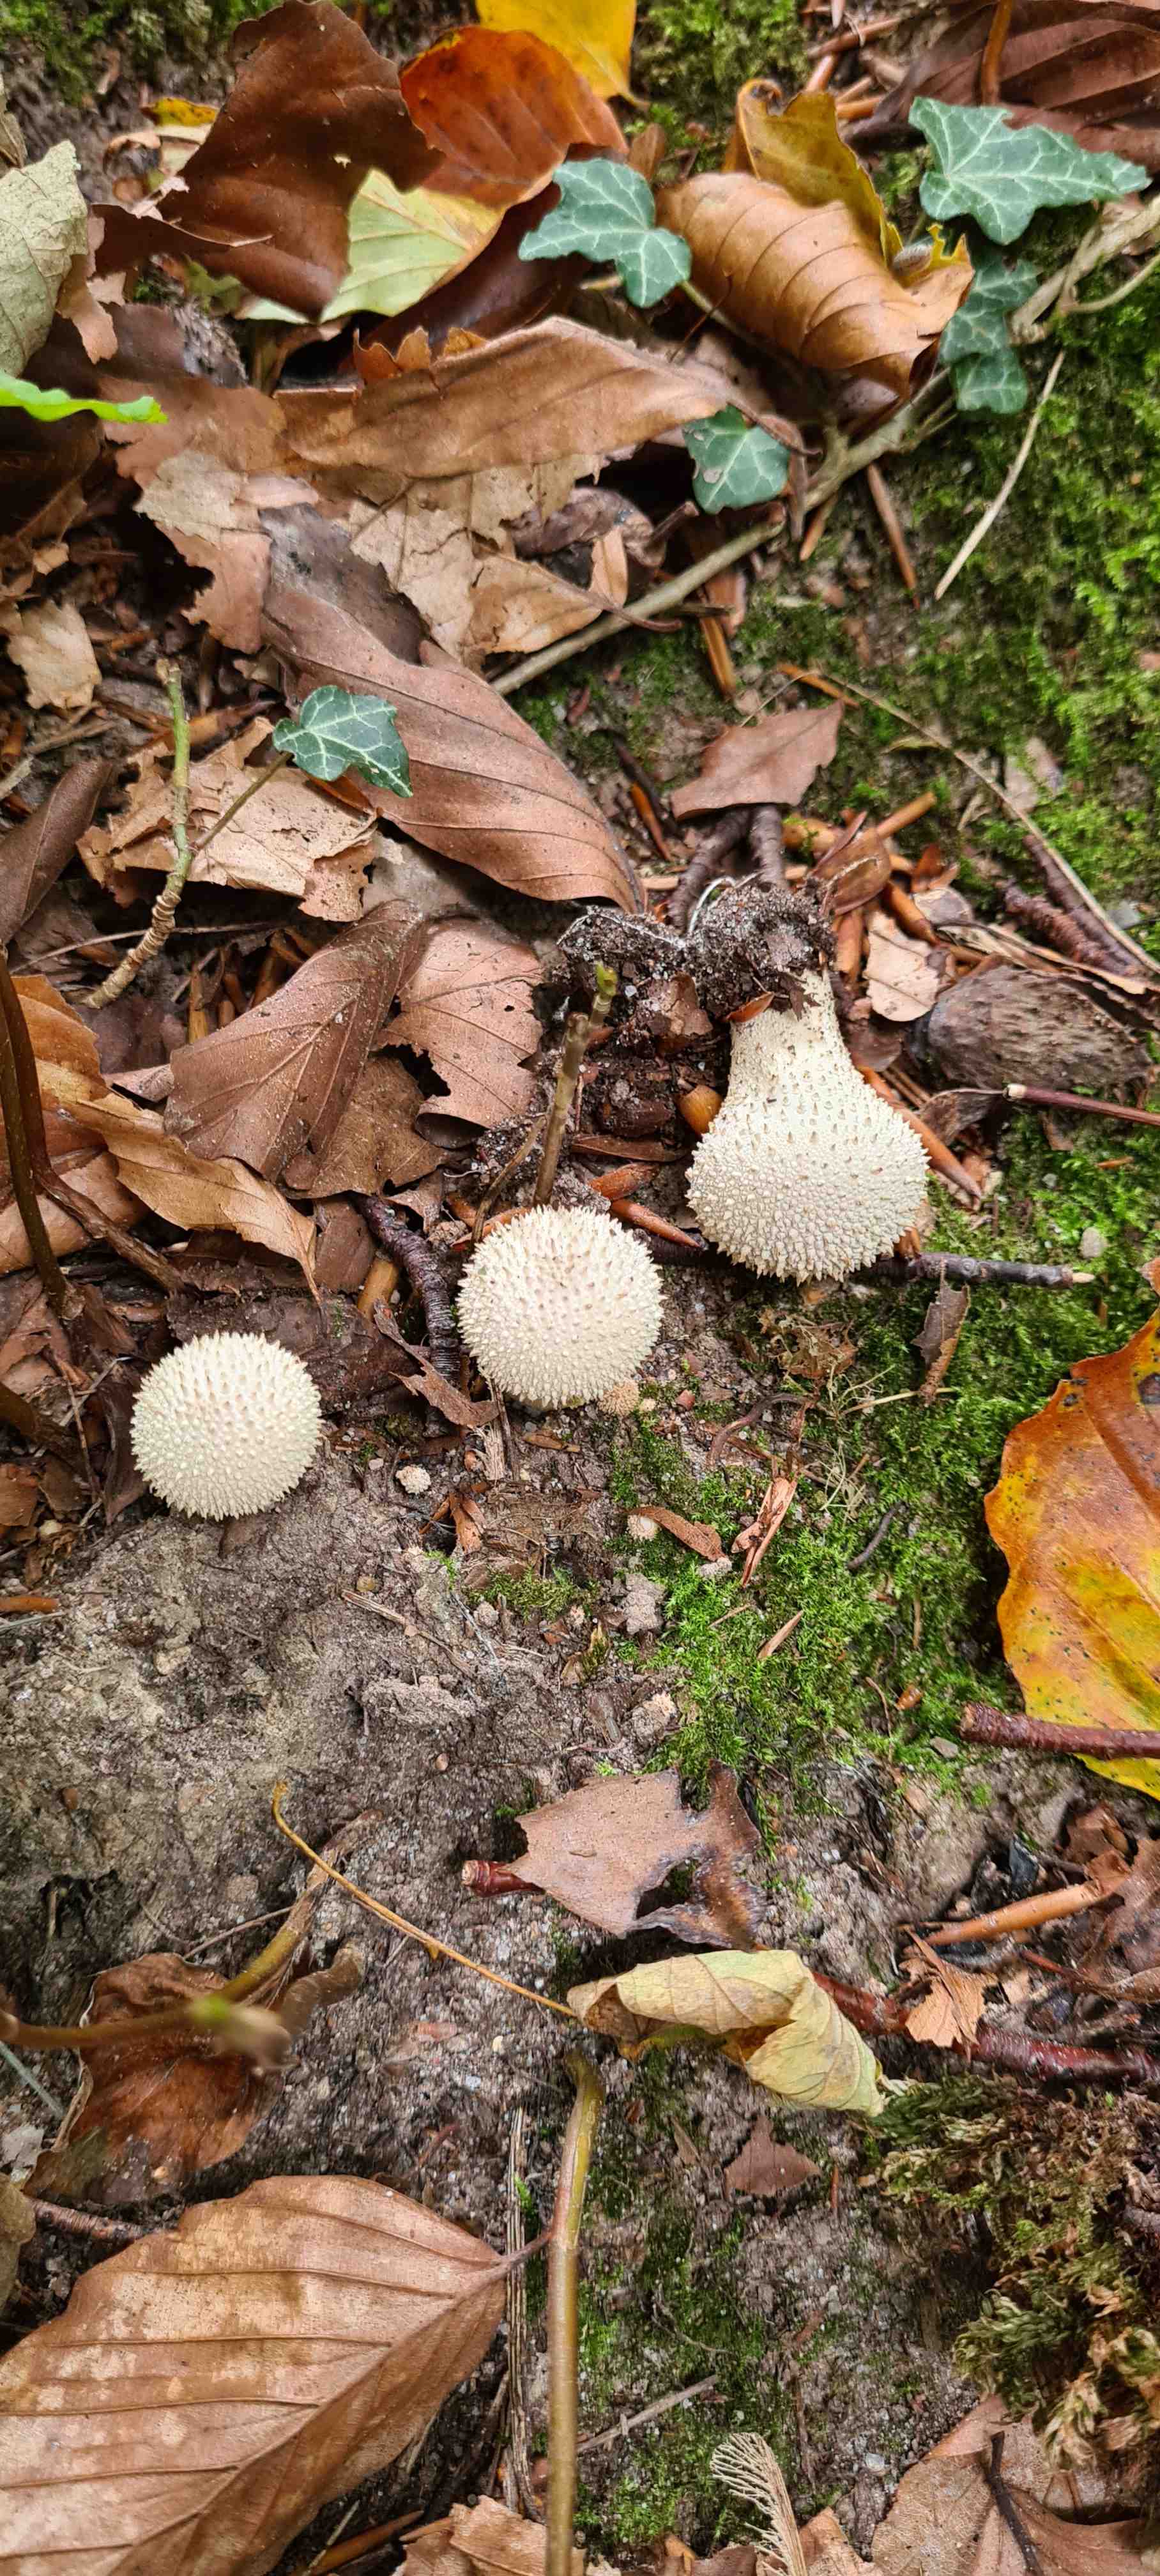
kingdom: Fungi
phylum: Basidiomycota
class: Agaricomycetes
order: Agaricales
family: Lycoperdaceae
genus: Lycoperdon
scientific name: Lycoperdon perlatum
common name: krystal-støvbold
